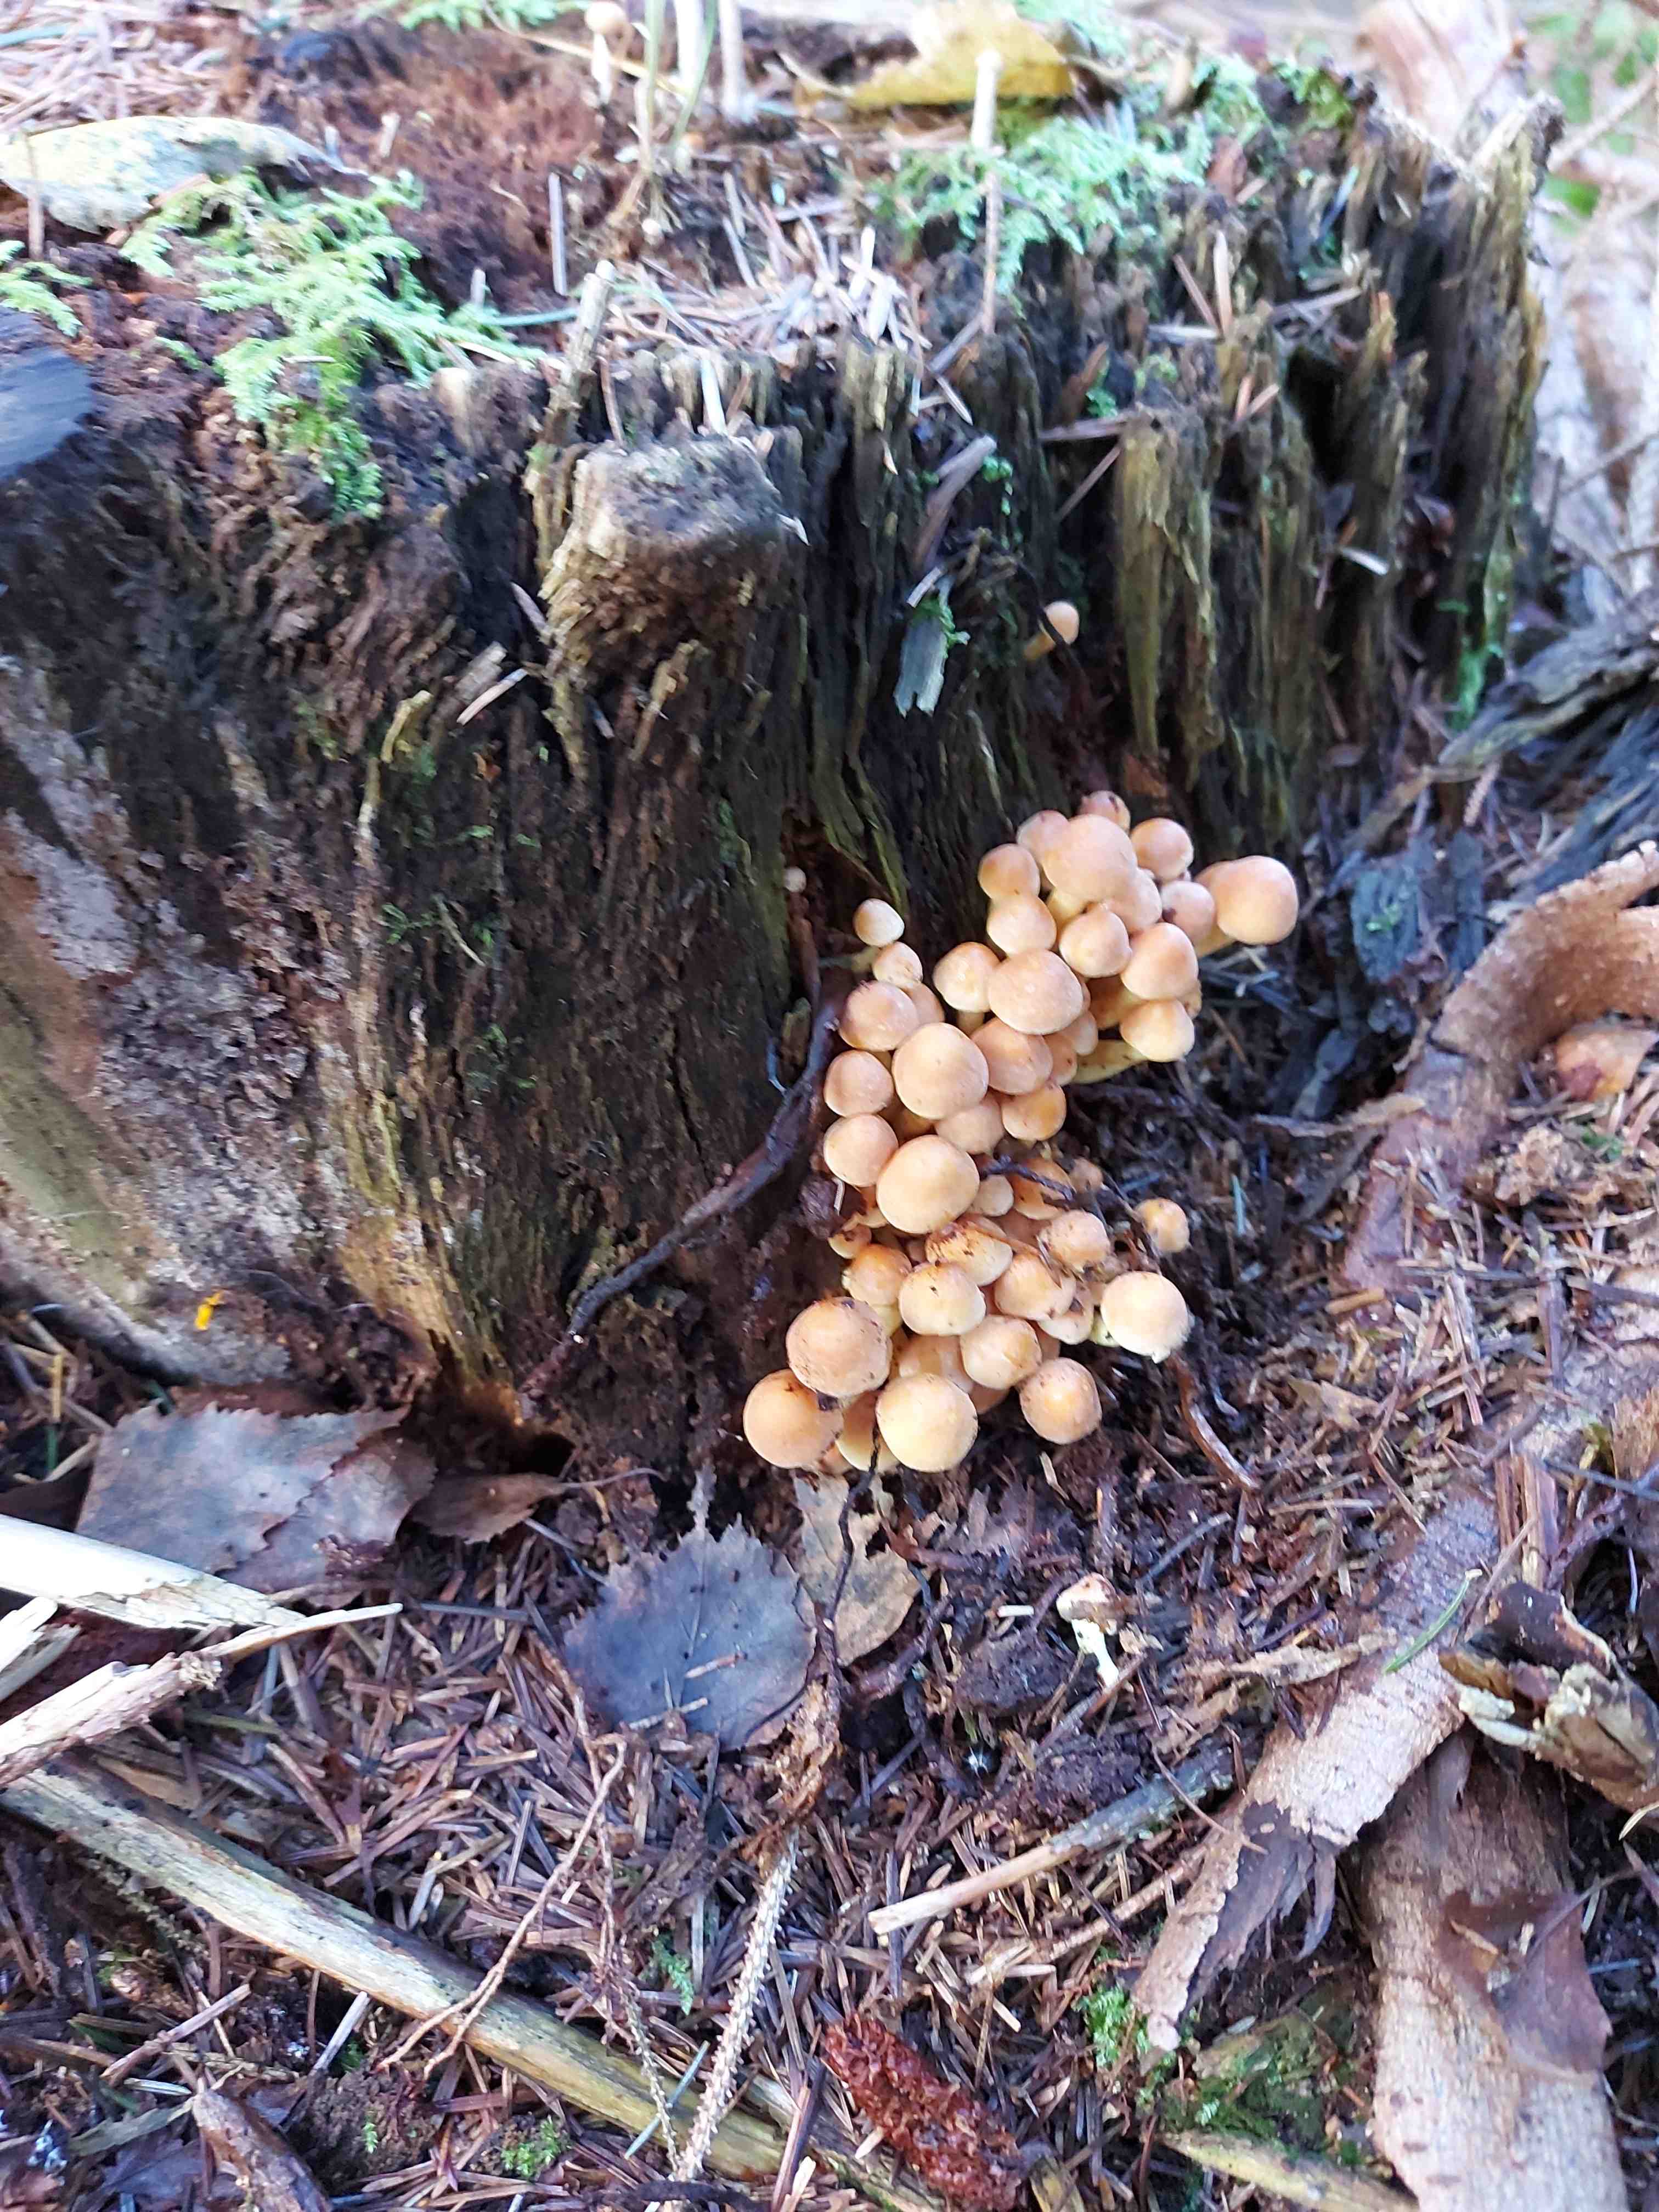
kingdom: Fungi
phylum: Basidiomycota
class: Agaricomycetes
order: Agaricales
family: Strophariaceae
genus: Hypholoma
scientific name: Hypholoma
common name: svovlhat
